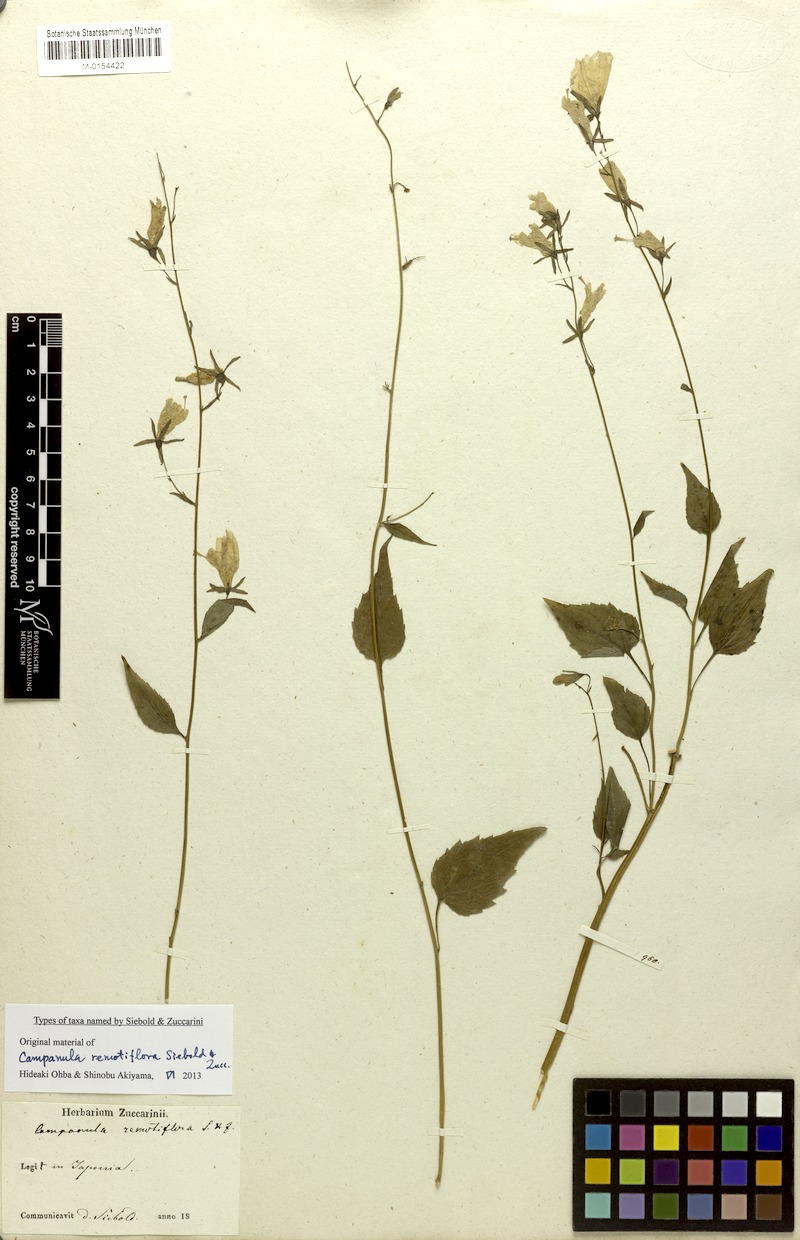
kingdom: Plantae
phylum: Tracheophyta
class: Magnoliopsida
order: Asterales
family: Campanulaceae
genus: Adenophora
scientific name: Adenophora remotiflora
